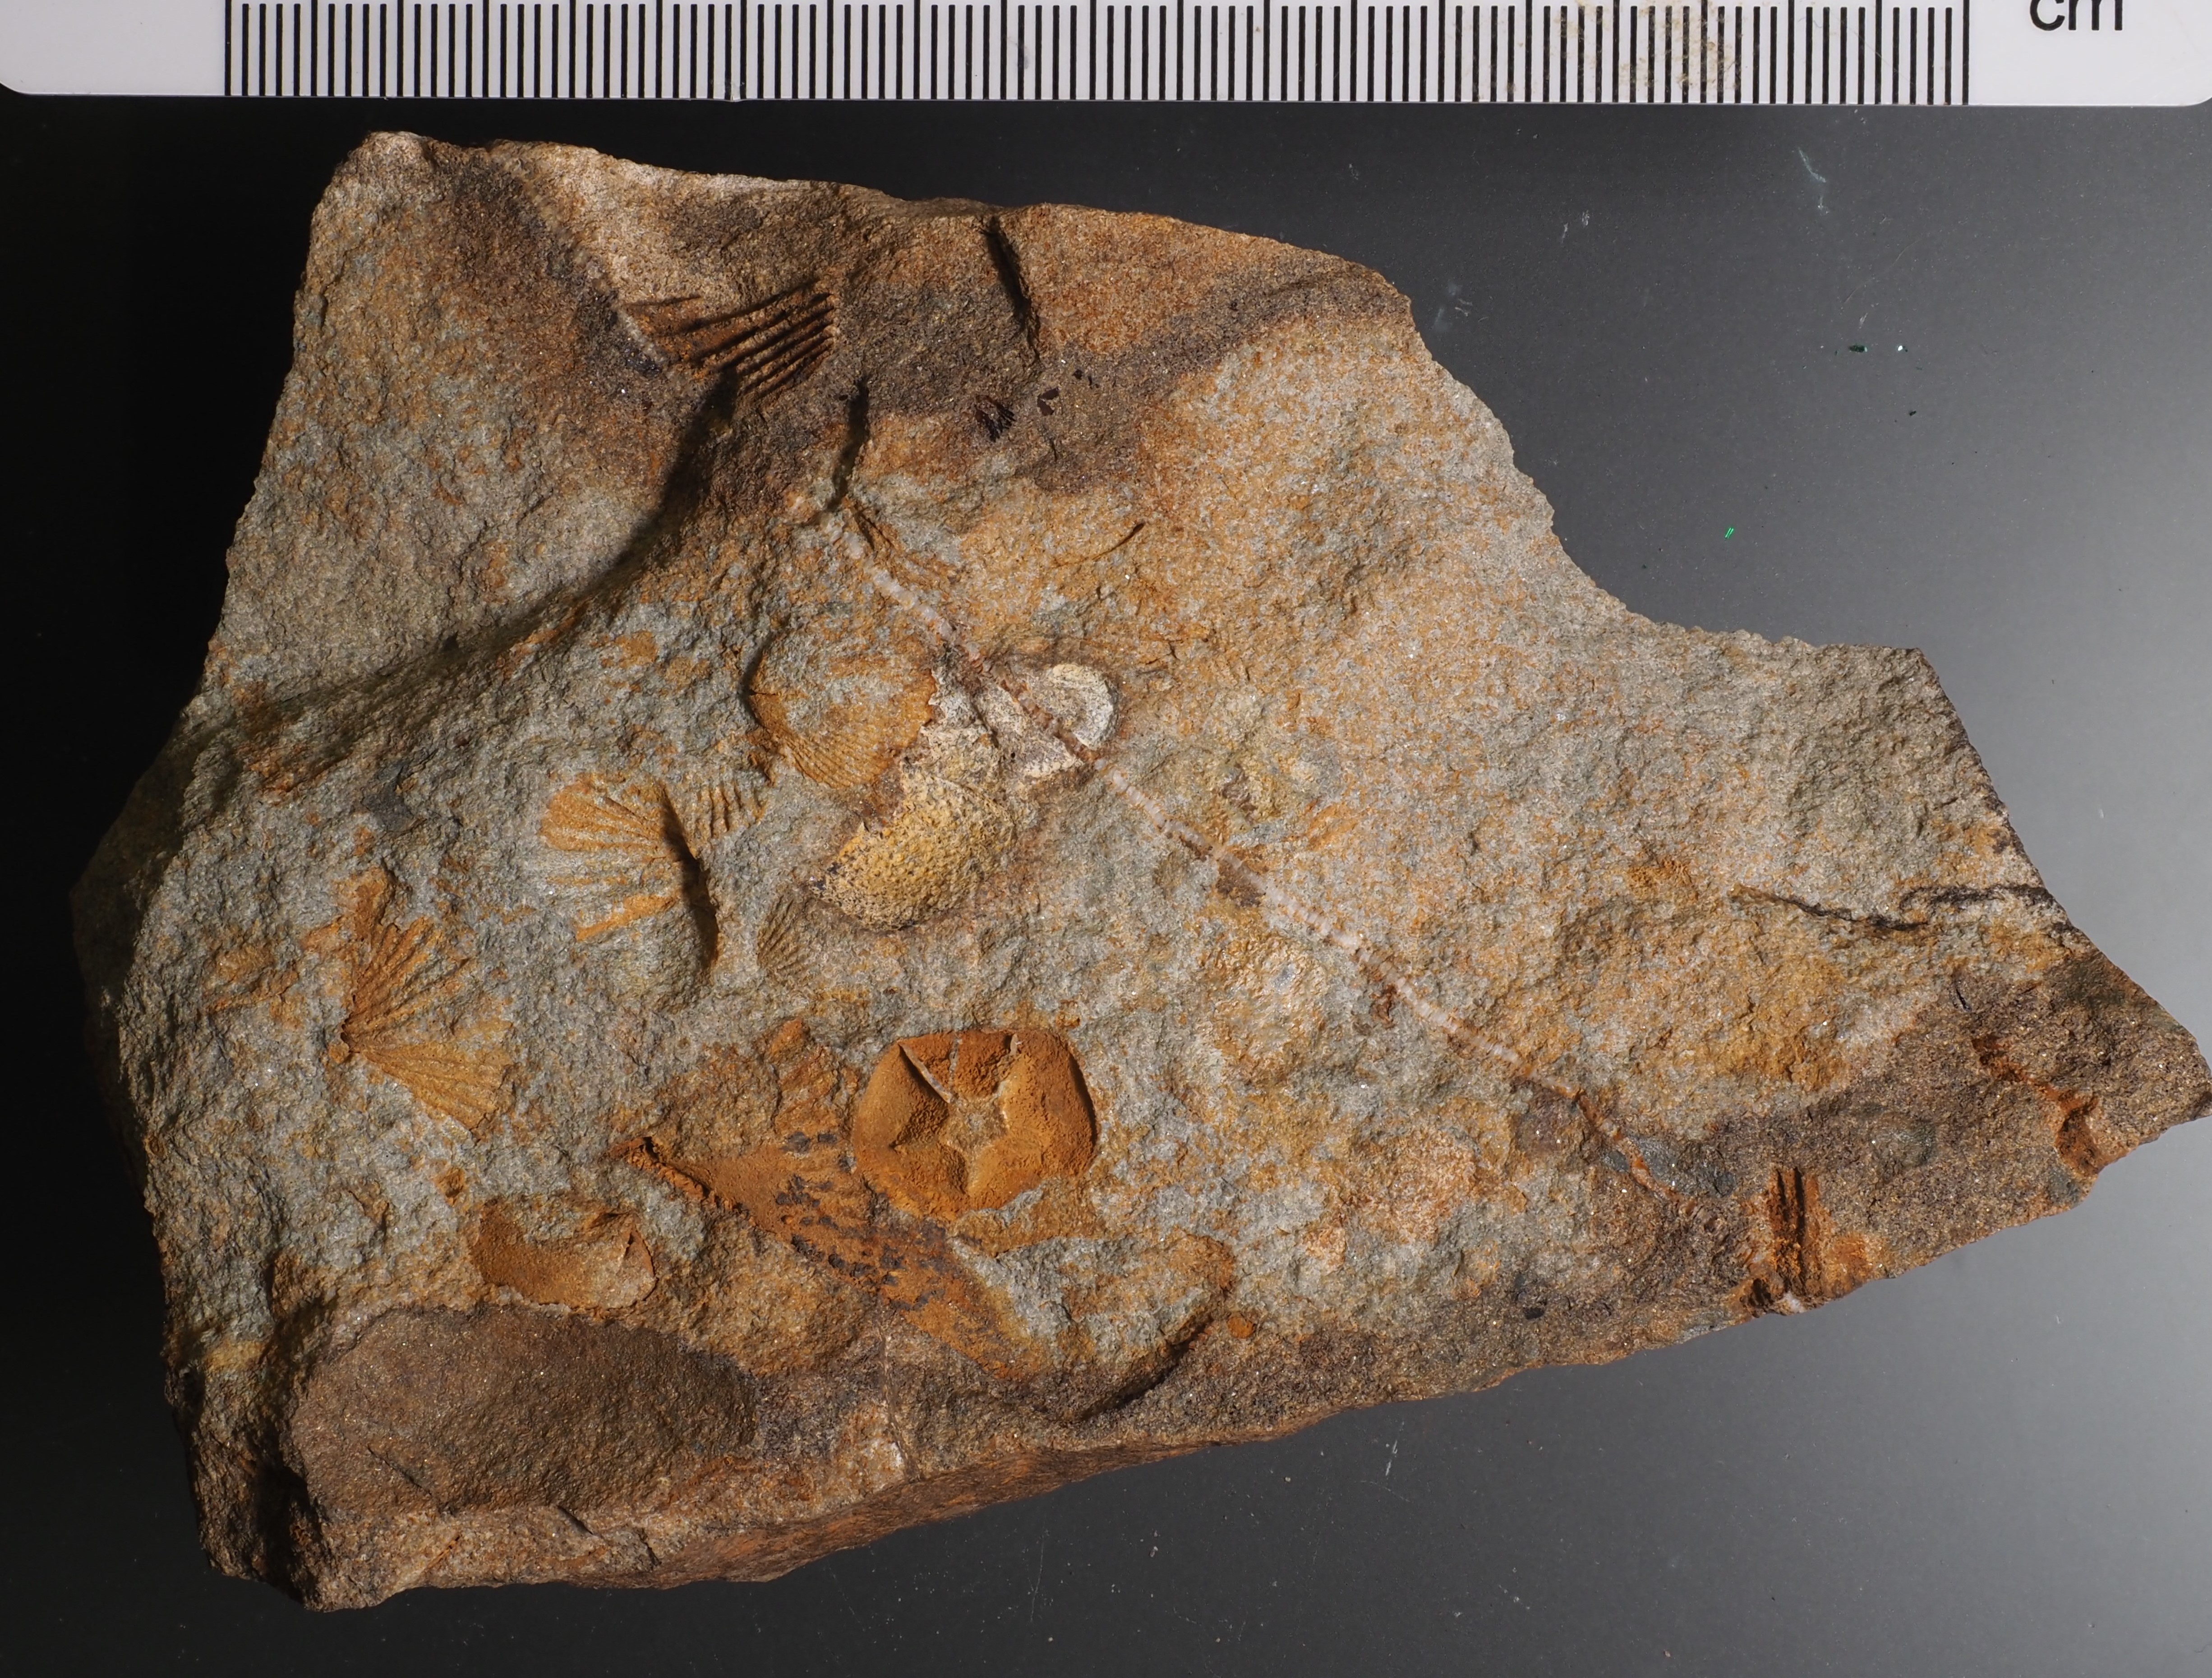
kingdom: Animalia
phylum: Arthropoda
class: Trilobita
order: Phacopida
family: Acastidae
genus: Pilletina
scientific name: Pilletina oeslingiana
